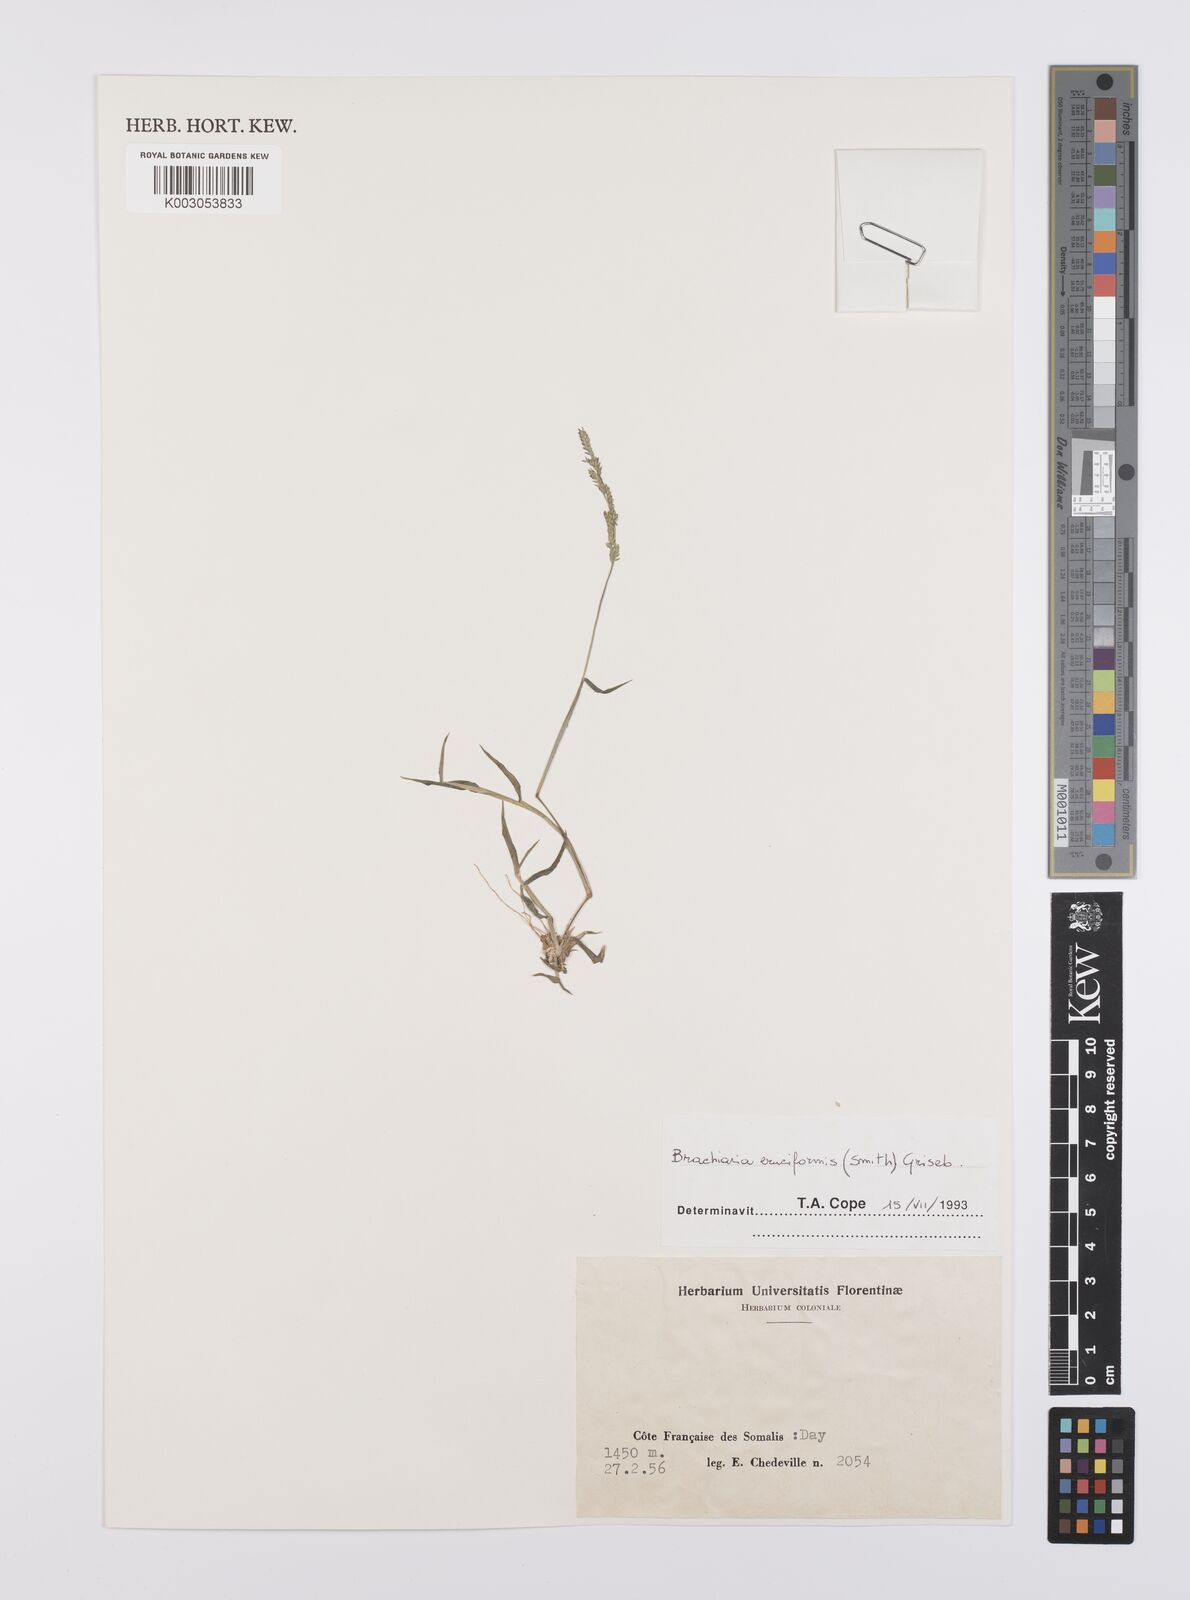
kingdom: Plantae
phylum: Tracheophyta
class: Liliopsida
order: Poales
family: Poaceae
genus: Moorochloa
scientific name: Moorochloa eruciformis
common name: Sweet signalgrass
